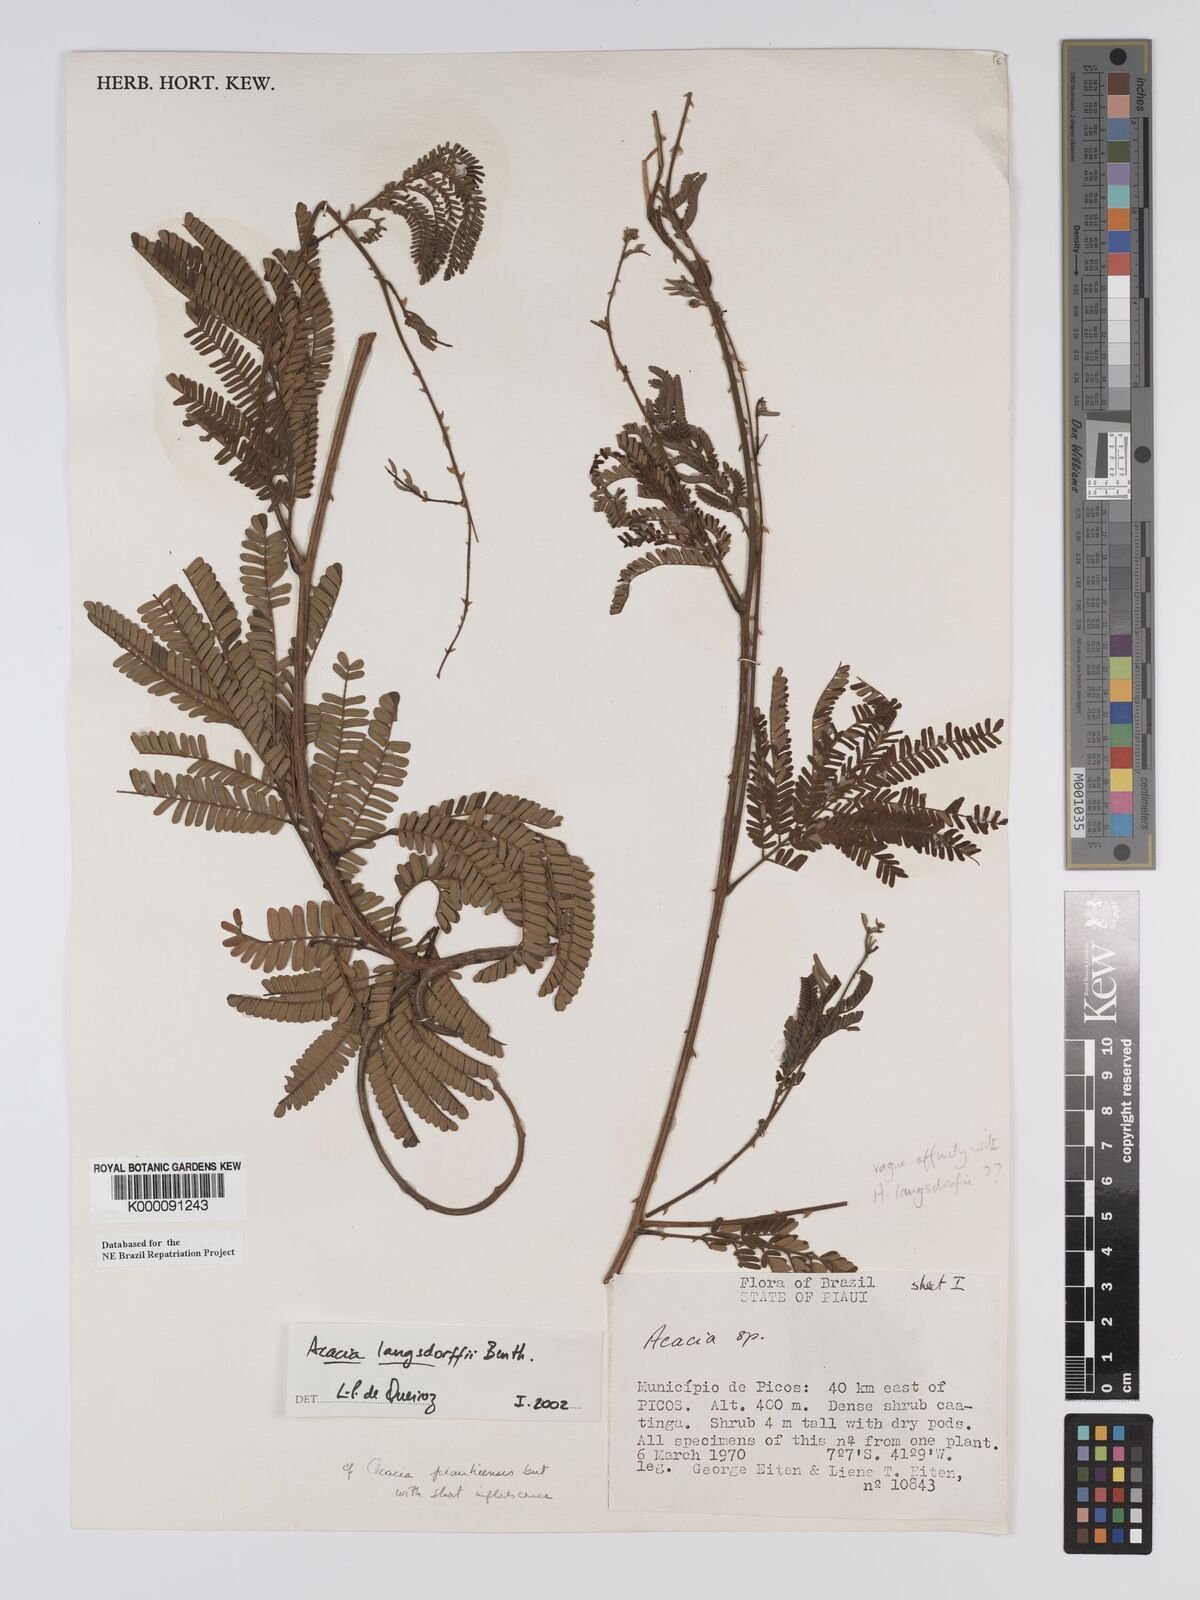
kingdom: Plantae
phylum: Tracheophyta
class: Magnoliopsida
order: Fabales
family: Fabaceae
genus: Senegalia
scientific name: Senegalia langsdorffii
